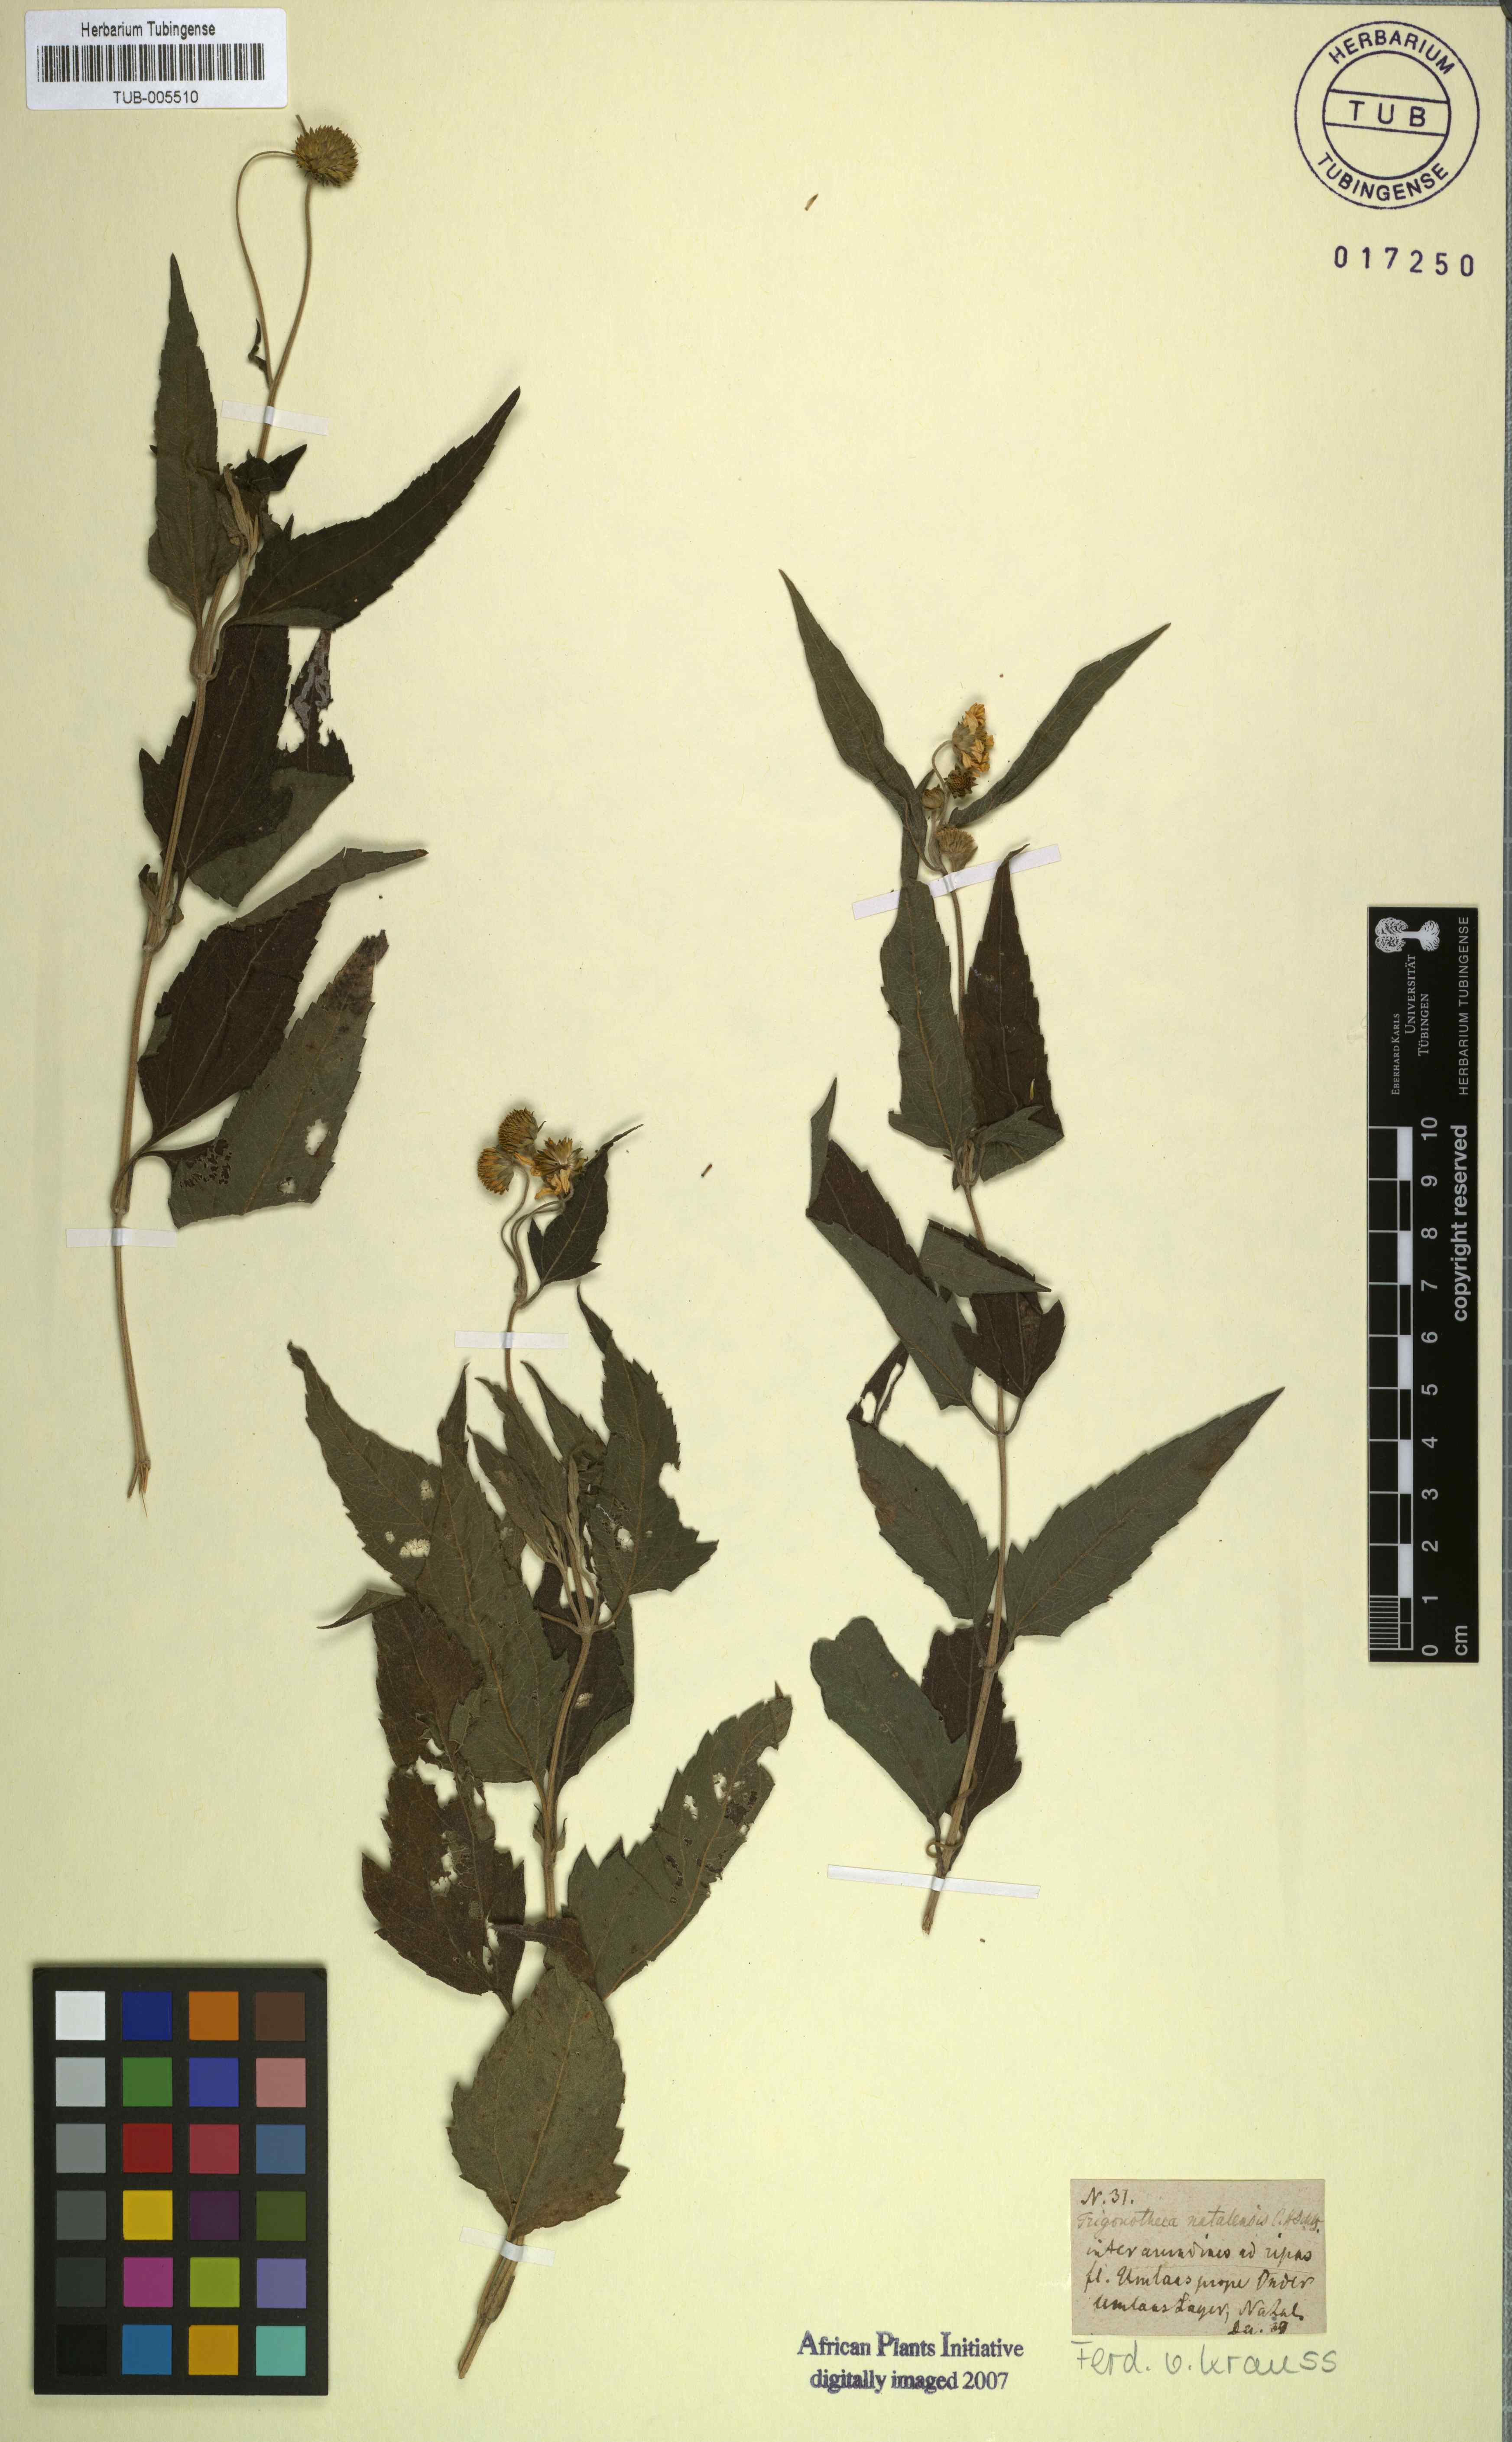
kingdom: Plantae
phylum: Tracheophyta
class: Magnoliopsida
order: Asterales
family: Asteraceae
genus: Melanthera
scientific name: Melanthera scandens
